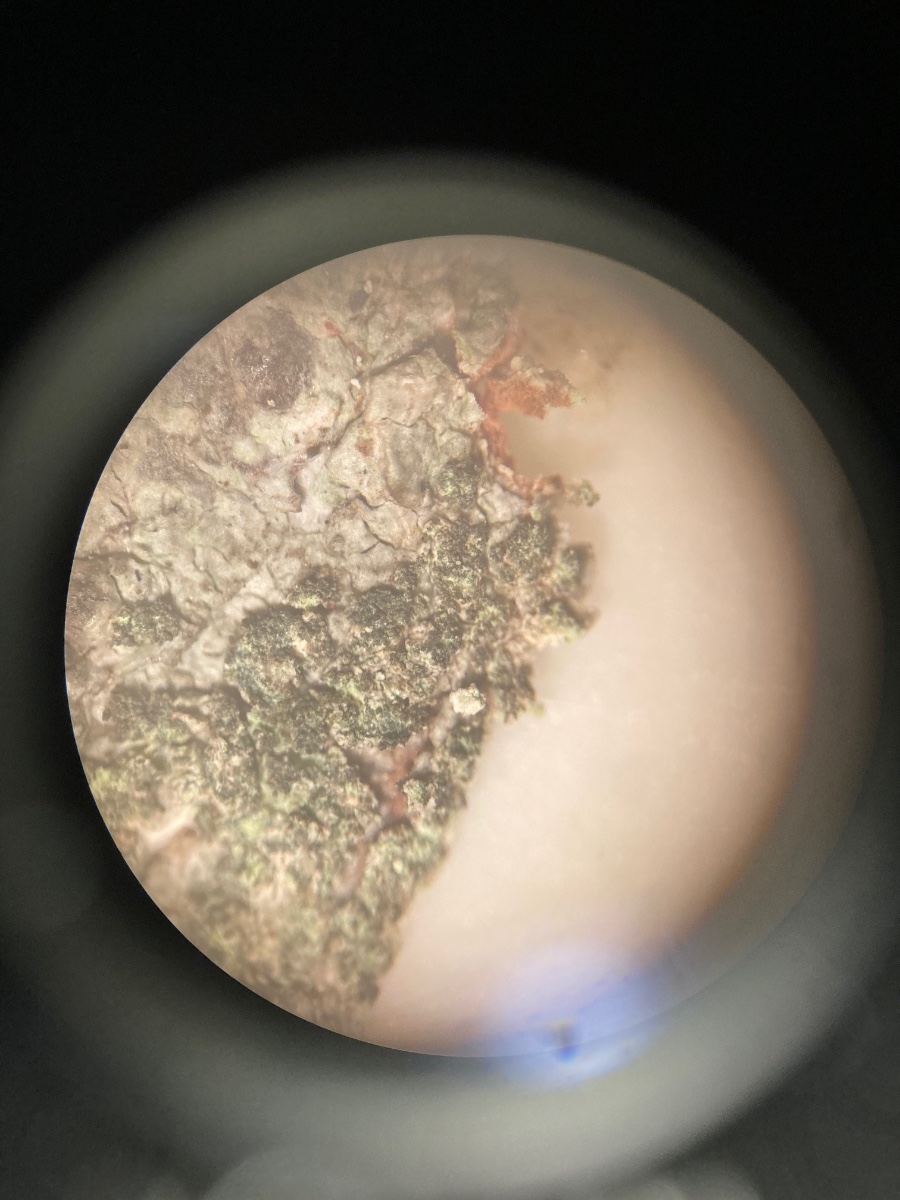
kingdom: Fungi
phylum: Ascomycota
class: Lecanoromycetes
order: Caliciales
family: Caliciaceae
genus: Buellia
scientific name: Buellia griseovirens
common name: grågrøn sortskivelav
